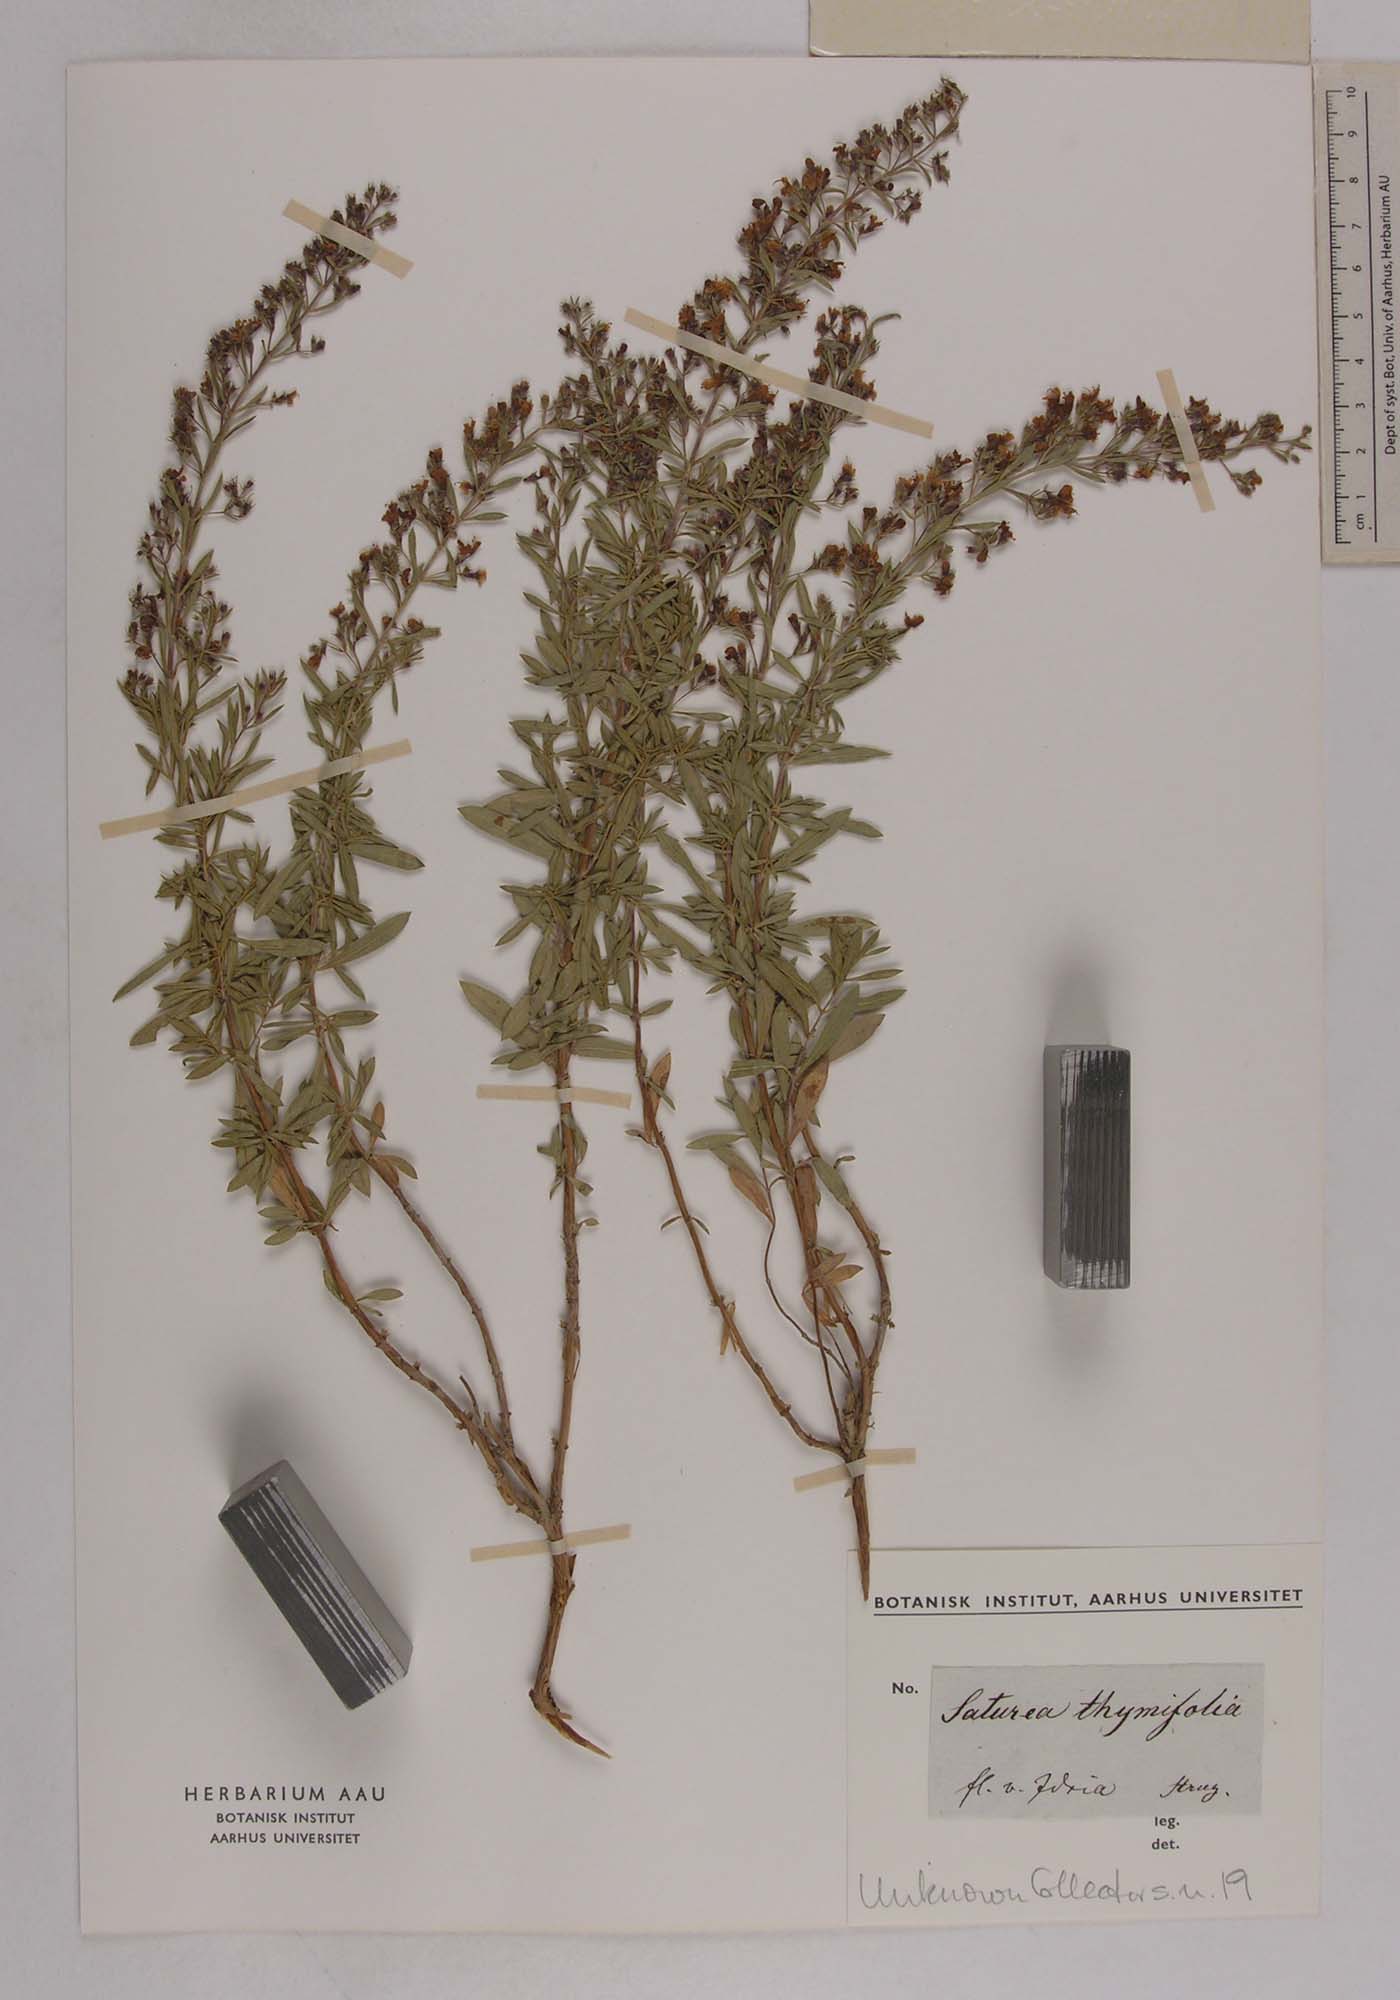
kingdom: Plantae
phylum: Tracheophyta
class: Magnoliopsida
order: Lamiales
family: Lamiaceae
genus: Clinopodium
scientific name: Clinopodium album
